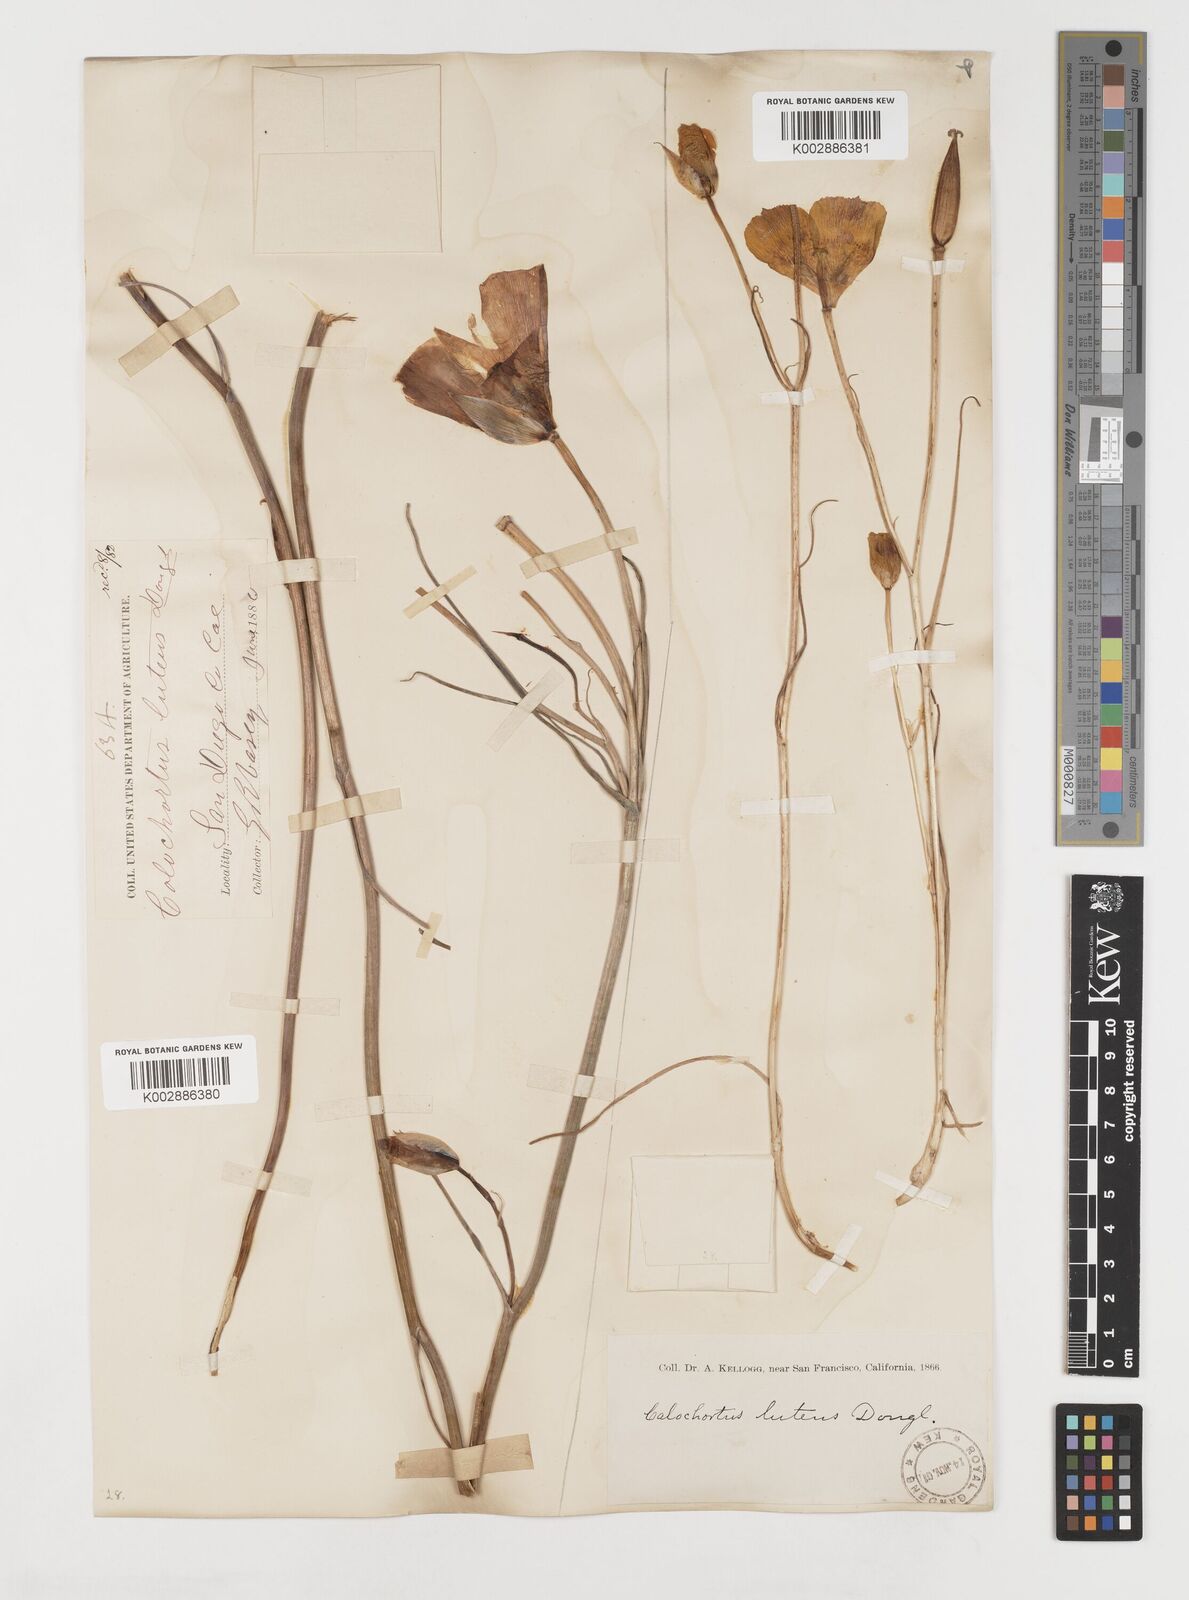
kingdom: Plantae
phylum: Tracheophyta
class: Liliopsida
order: Liliales
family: Liliaceae
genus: Calochortus
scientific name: Calochortus nuttallii
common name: Sego-lily
